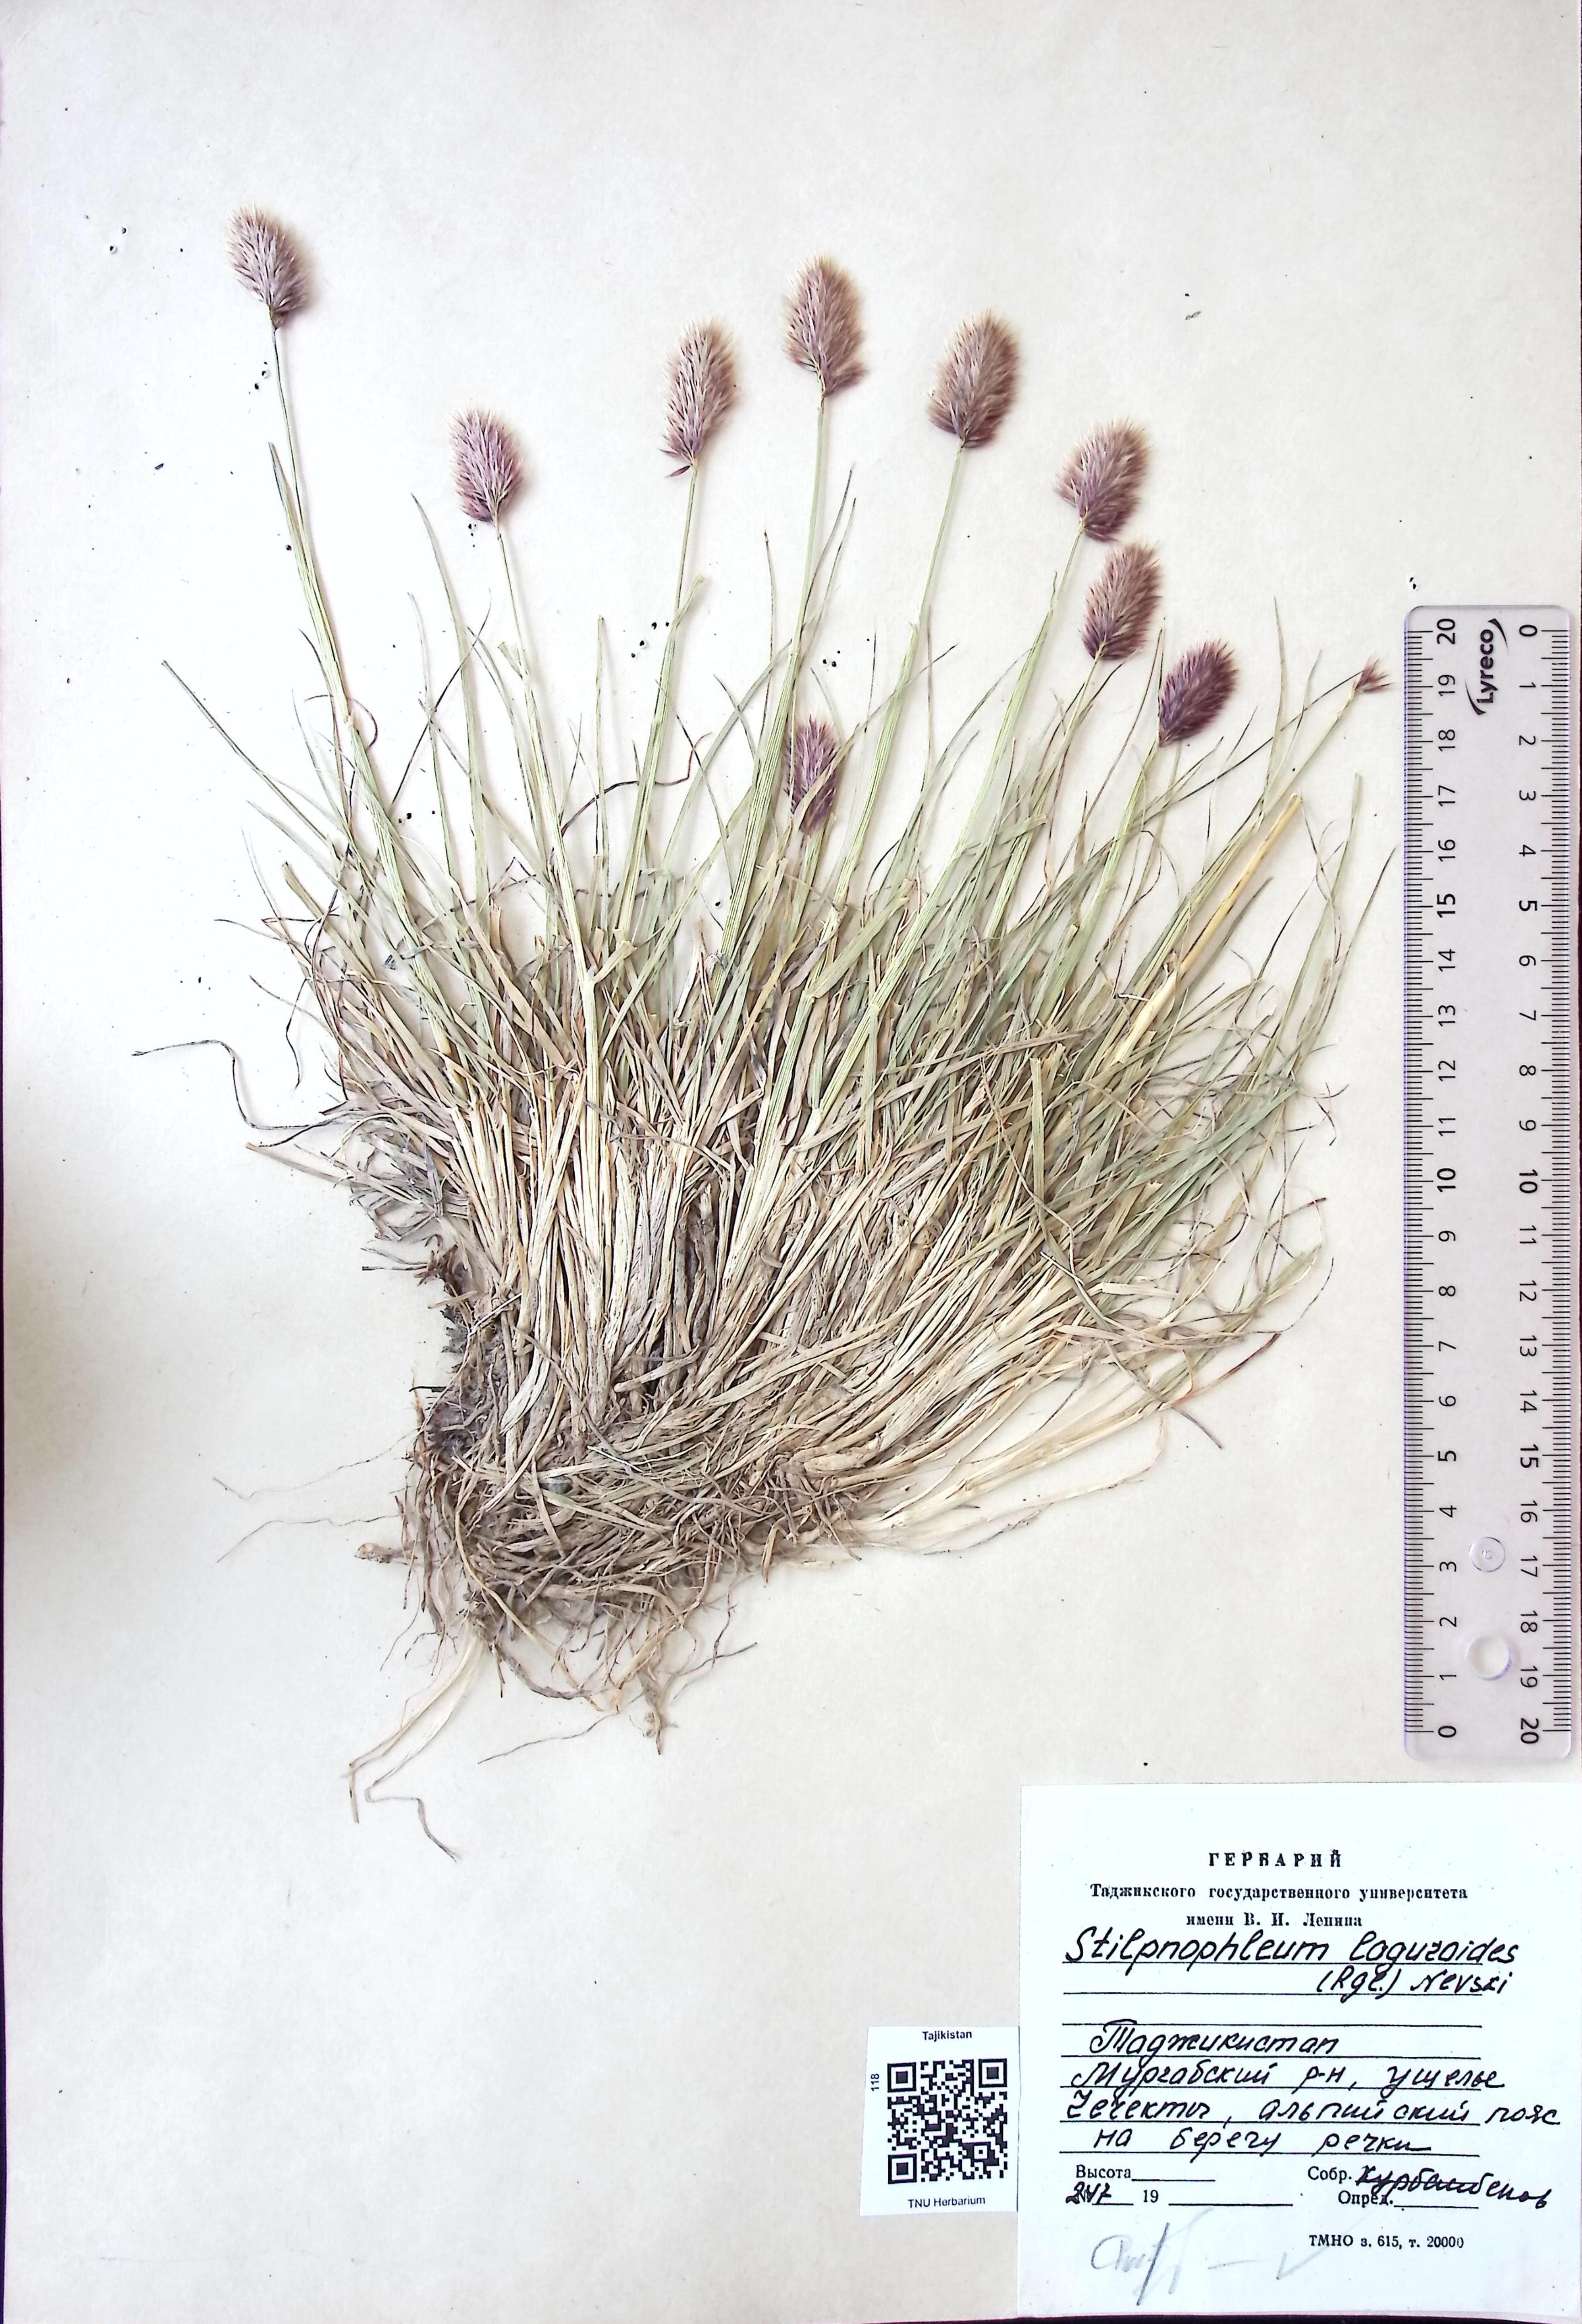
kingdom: Plantae
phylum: Tracheophyta
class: Liliopsida
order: Poales
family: Poaceae
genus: Calamagrostis
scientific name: Calamagrostis anthoxanthoides
